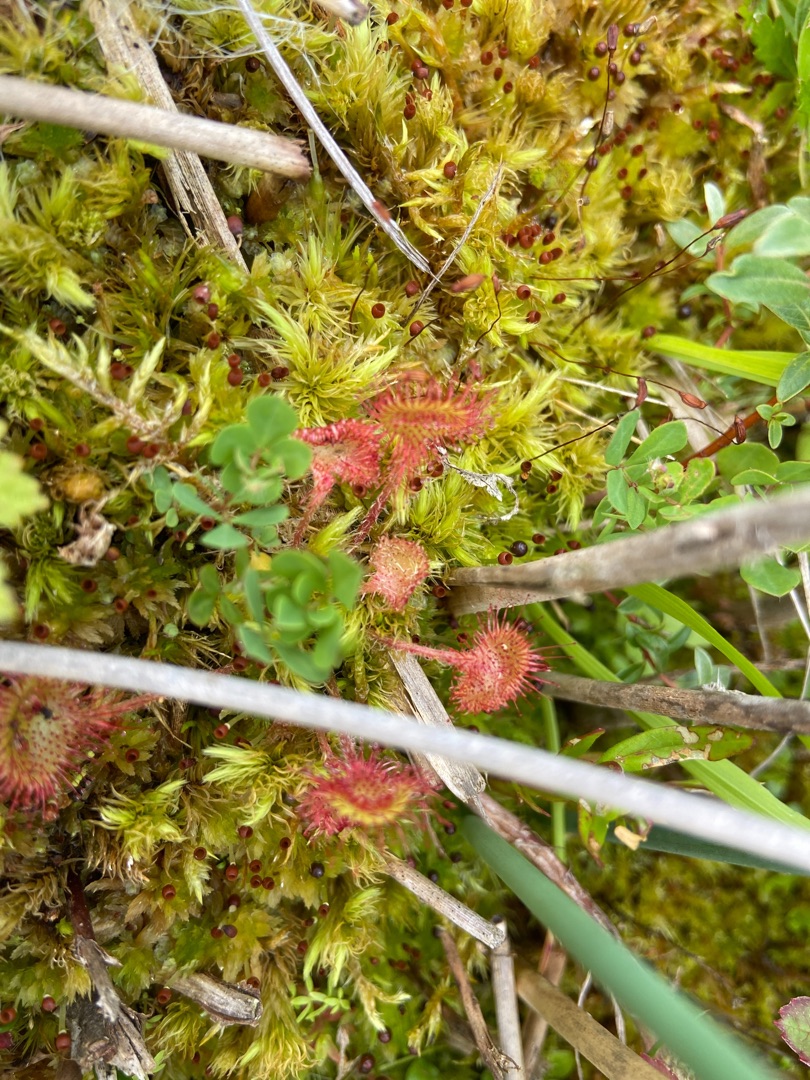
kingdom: Plantae
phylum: Tracheophyta
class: Magnoliopsida
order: Caryophyllales
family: Droseraceae
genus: Drosera
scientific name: Drosera rotundifolia
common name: Rundbladet soldug
